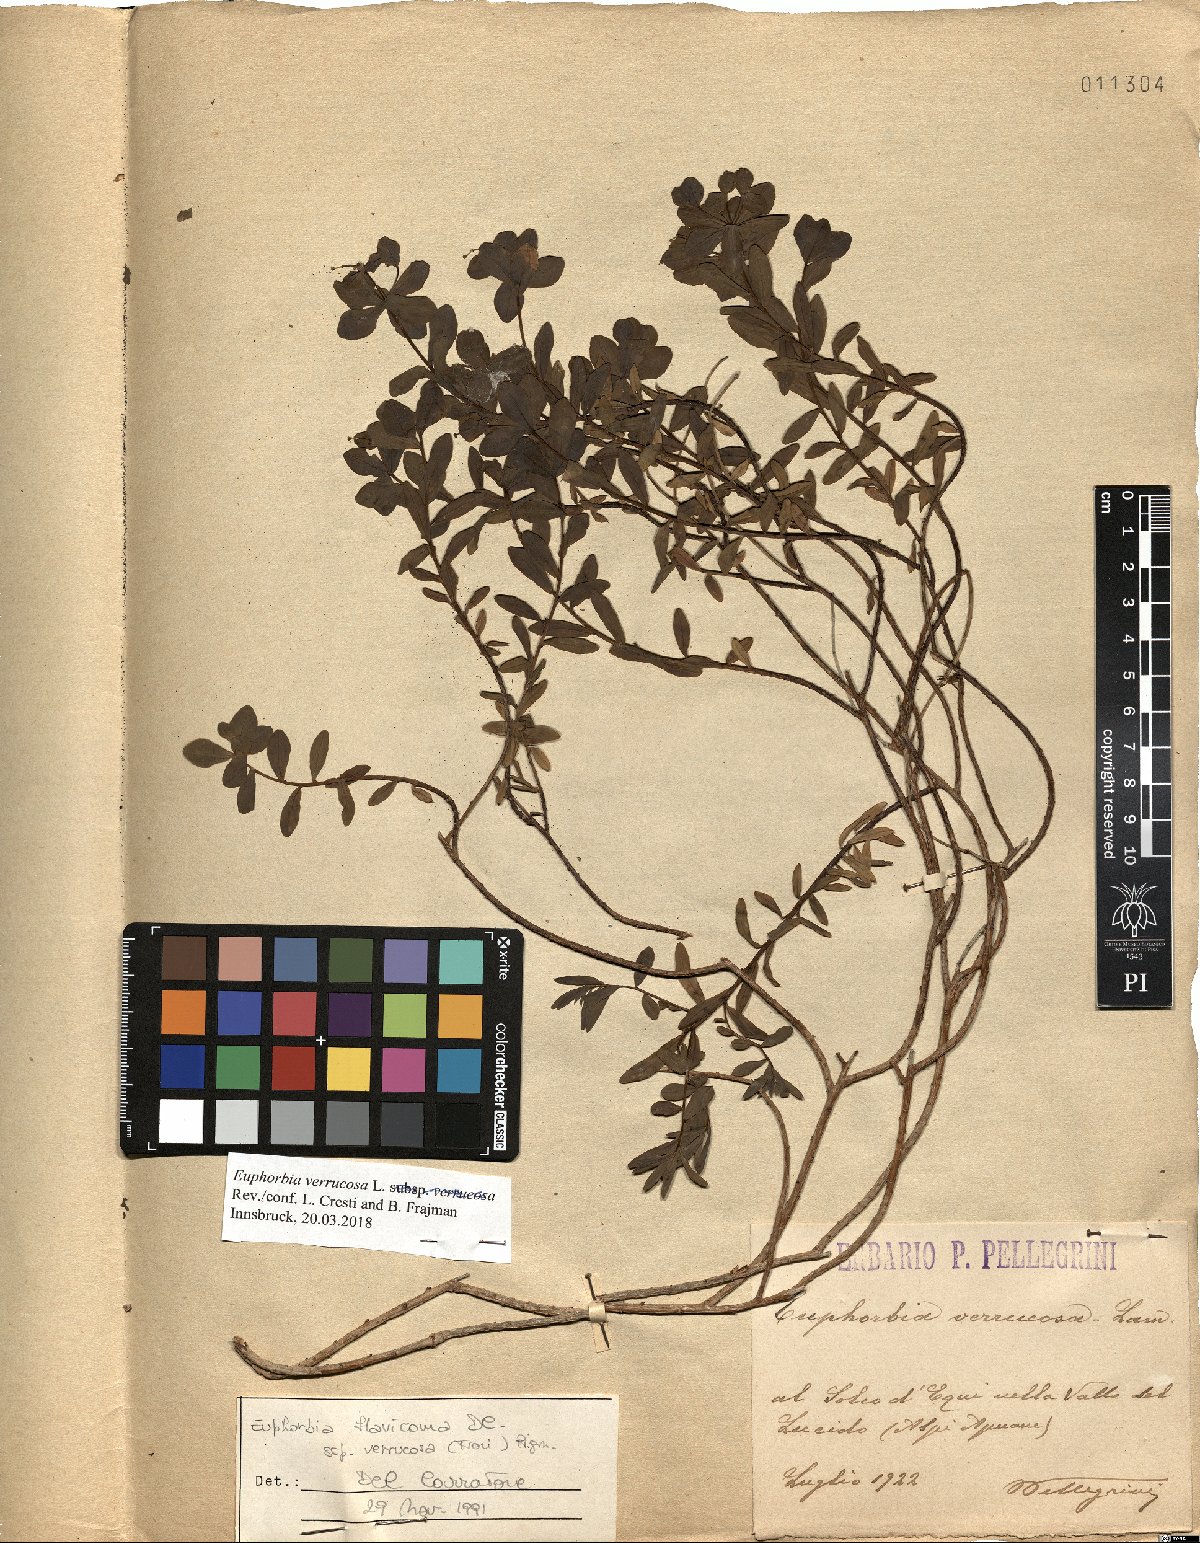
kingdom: Plantae
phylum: Tracheophyta
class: Magnoliopsida
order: Malpighiales
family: Euphorbiaceae
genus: Euphorbia
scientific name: Euphorbia verrucosa
